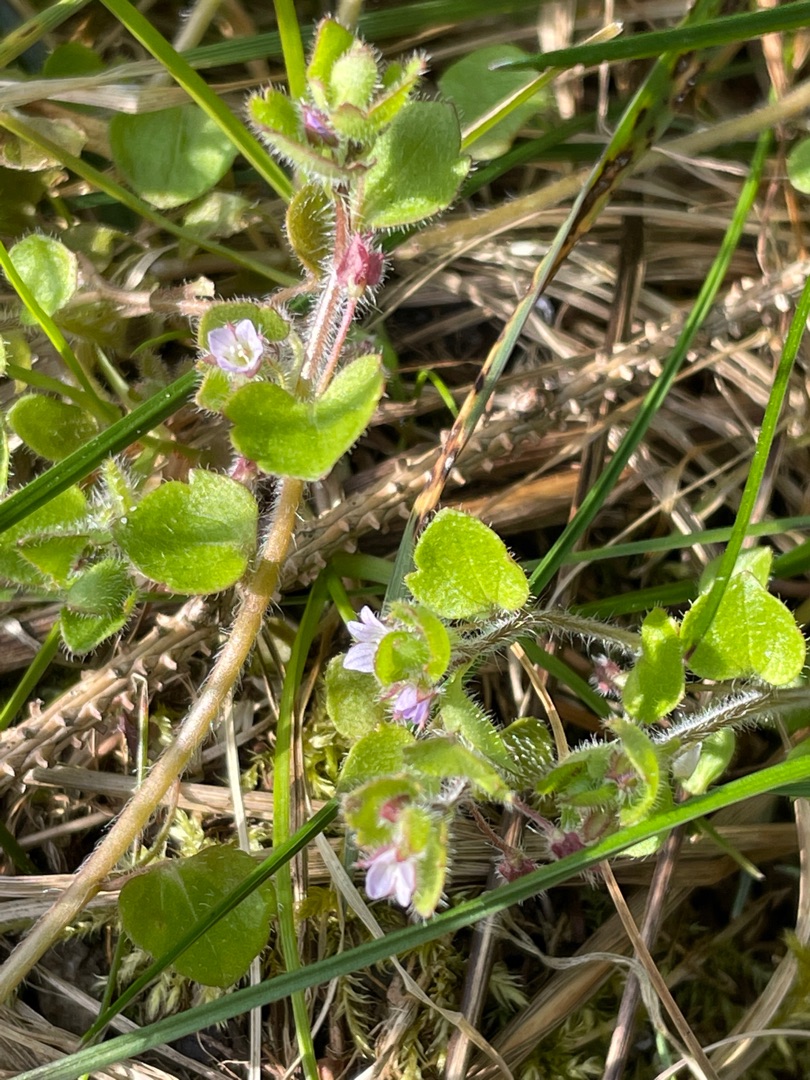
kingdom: Plantae
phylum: Tracheophyta
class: Magnoliopsida
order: Lamiales
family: Plantaginaceae
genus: Veronica
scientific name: Veronica hederifolia
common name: Vedbend-ærenpris
